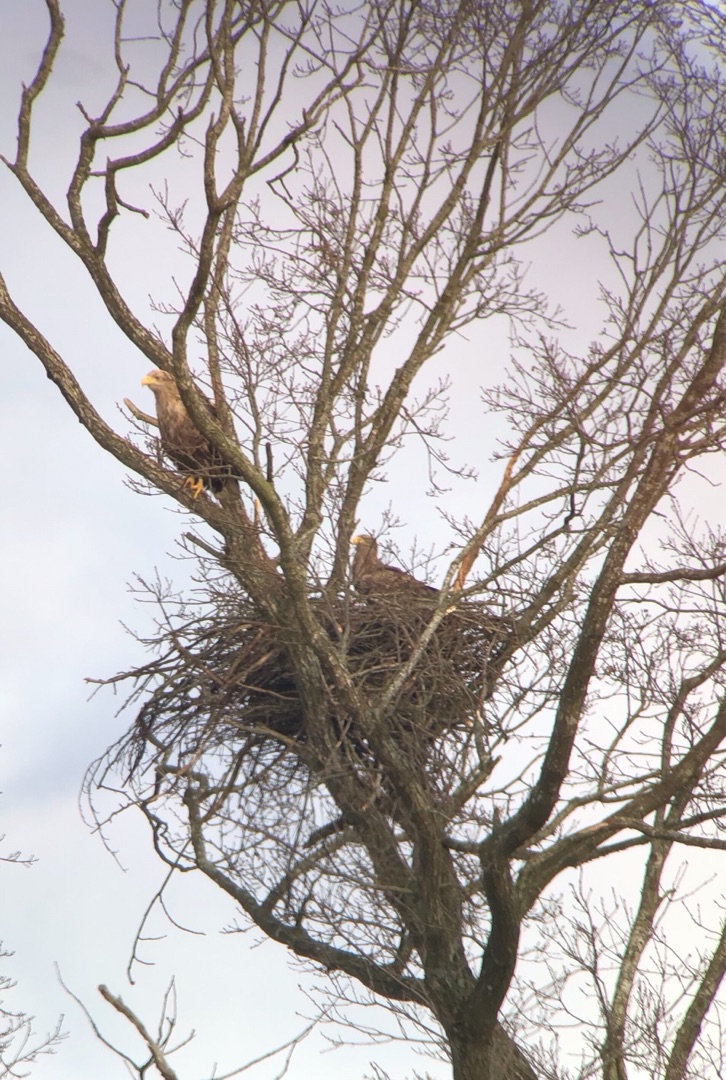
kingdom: Animalia
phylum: Chordata
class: Aves
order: Accipitriformes
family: Accipitridae
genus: Haliaeetus
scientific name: Haliaeetus albicilla
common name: Havørn
